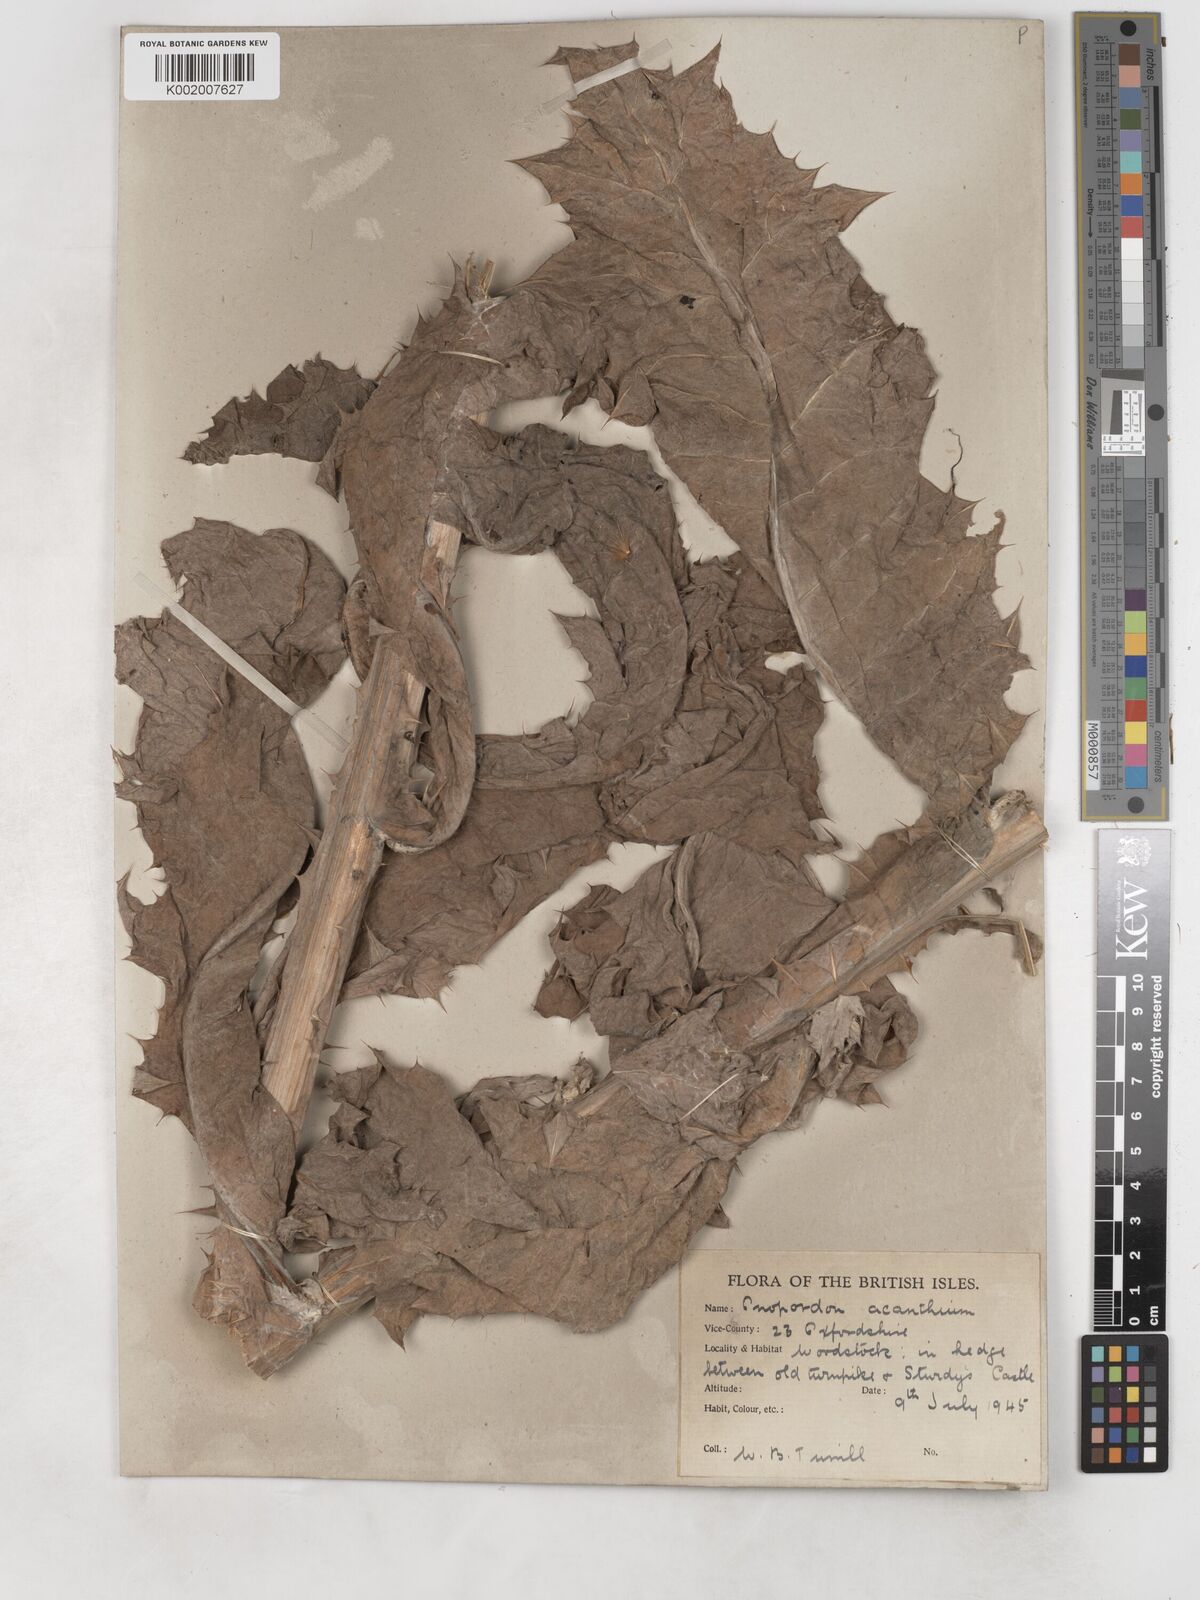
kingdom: Plantae
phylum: Tracheophyta
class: Magnoliopsida
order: Asterales
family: Asteraceae
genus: Onopordum
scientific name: Onopordum acanthium
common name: Scotch thistle
